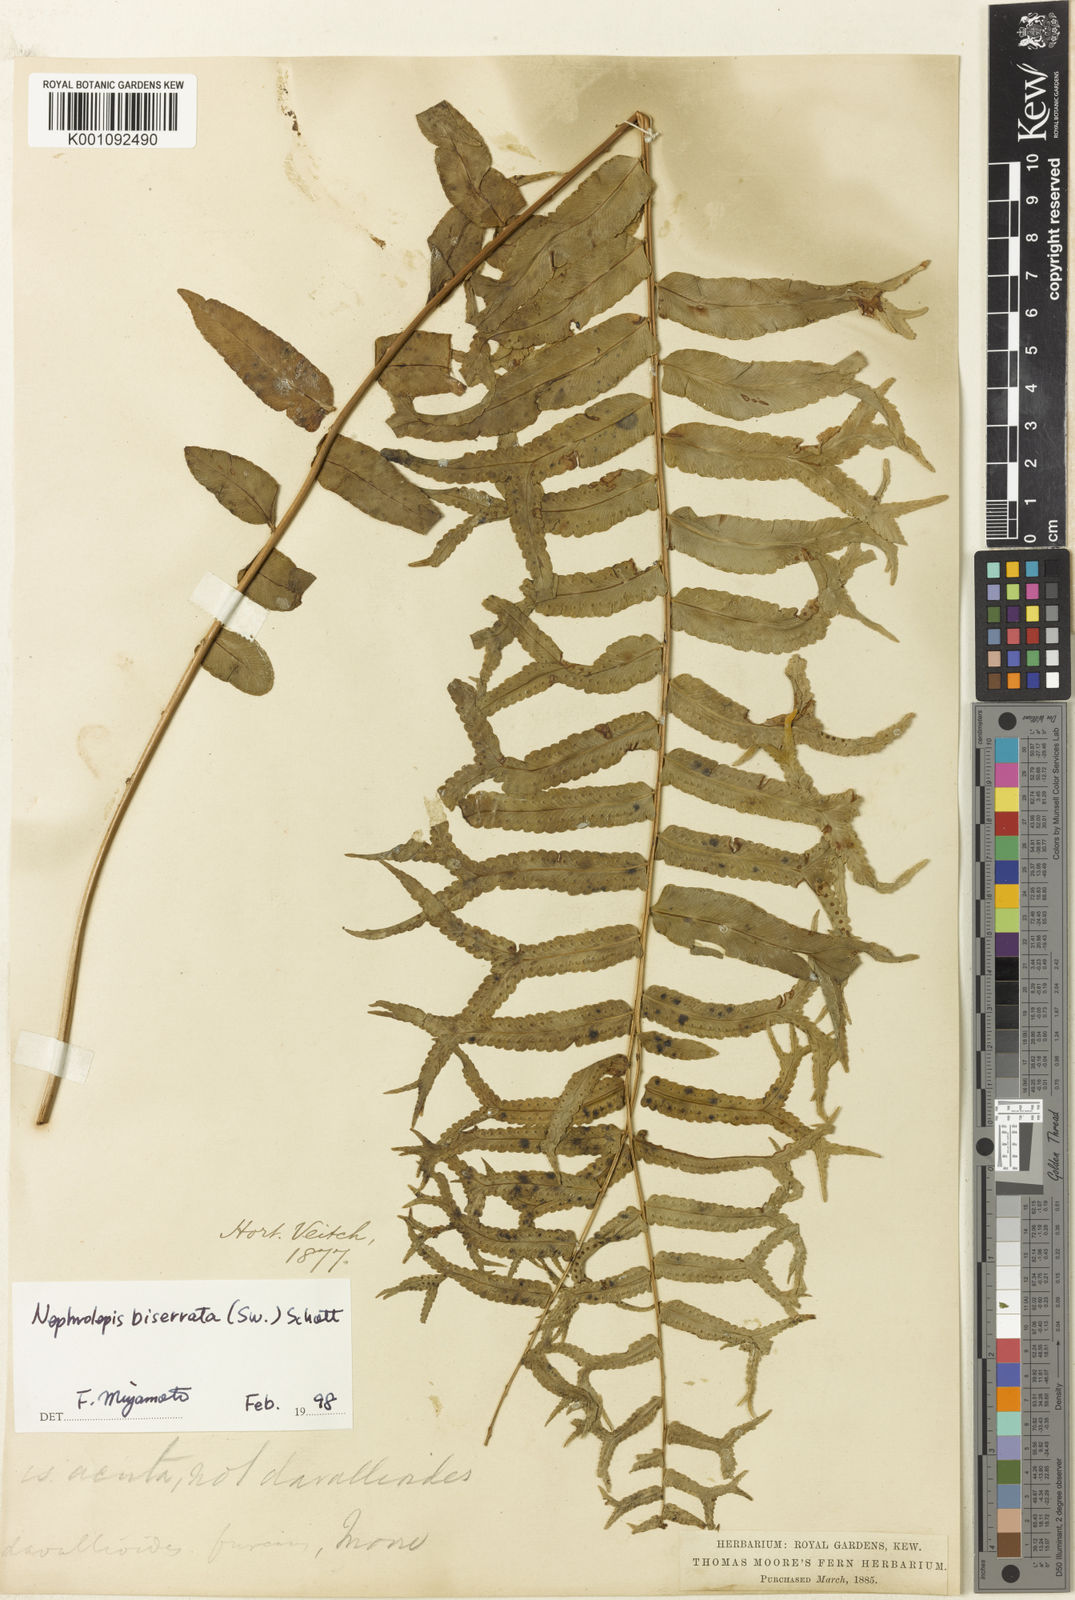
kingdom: Plantae
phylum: Tracheophyta
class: Polypodiopsida
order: Polypodiales
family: Nephrolepidaceae
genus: Nephrolepis
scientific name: Nephrolepis falcata
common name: Fishtail swordfern
